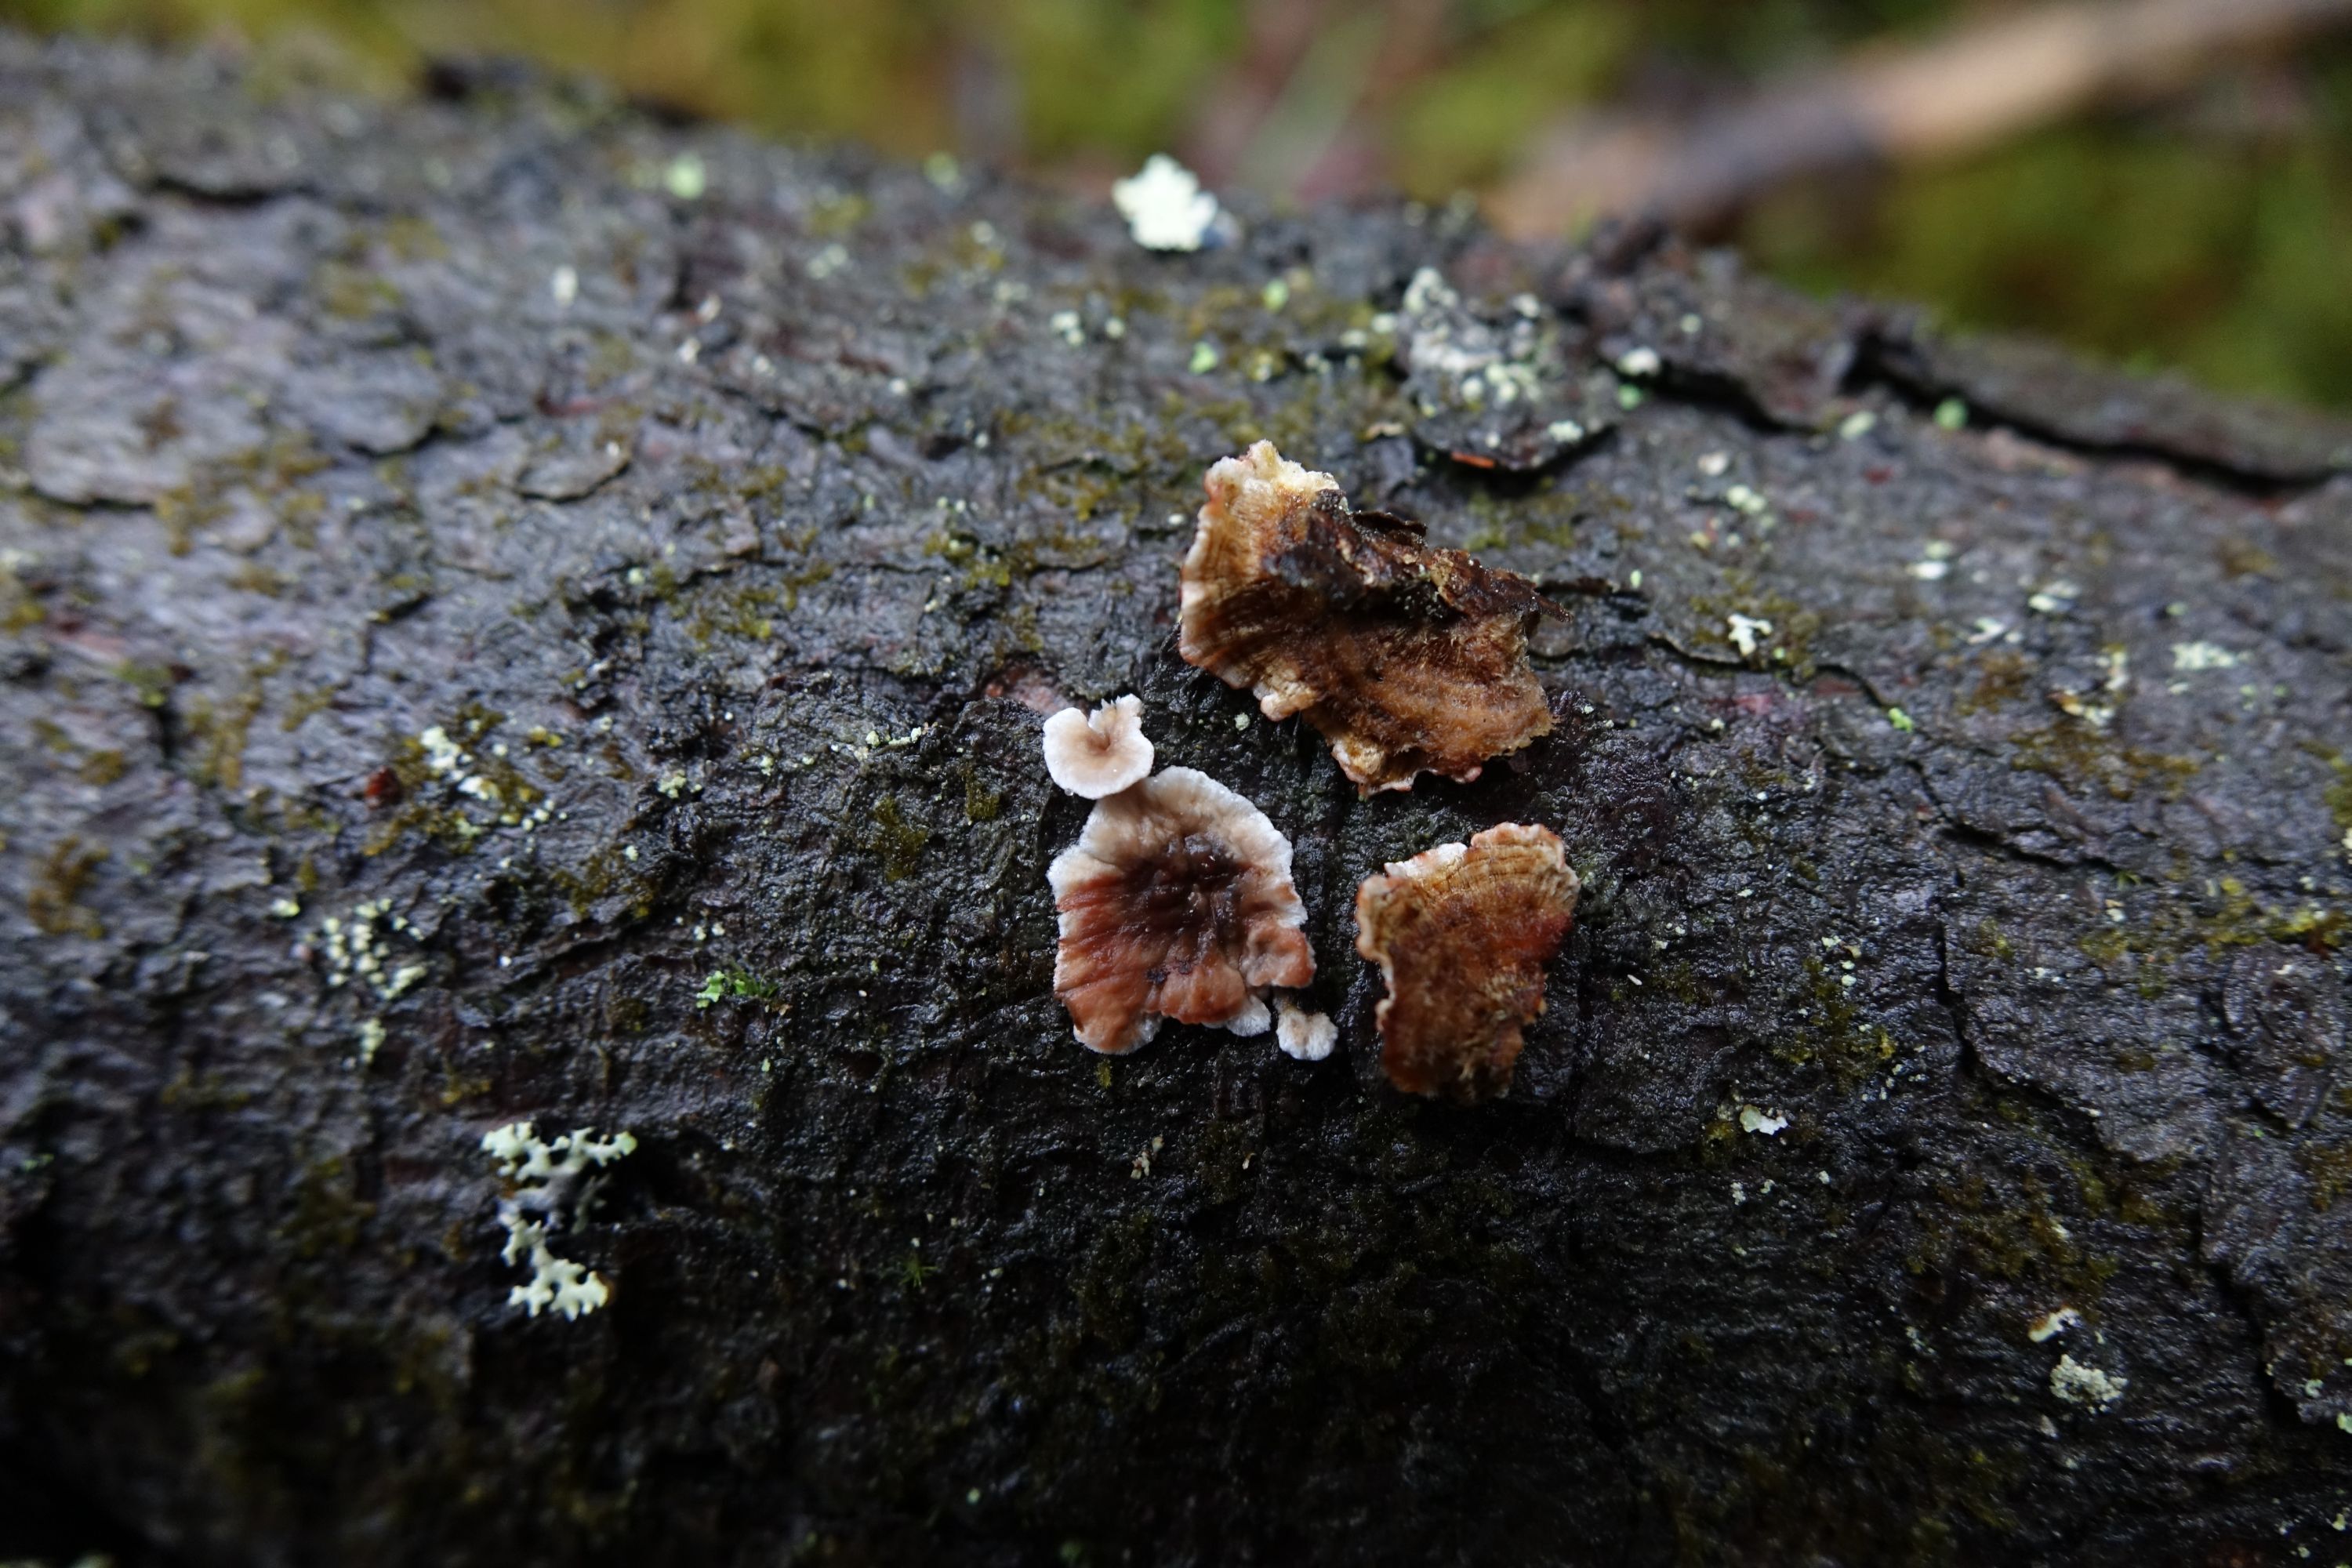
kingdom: Fungi
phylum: Basidiomycota
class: Agaricomycetes
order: Russulales
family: Stereaceae
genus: Stereum
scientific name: Stereum sanguinolentum
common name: Bleeding conifer crust
